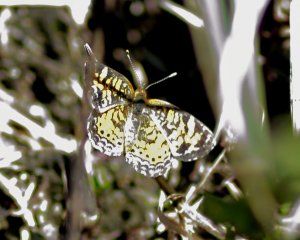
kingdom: Animalia
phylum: Arthropoda
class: Insecta
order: Lepidoptera
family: Nymphalidae
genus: Phyciodes
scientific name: Phyciodes tharos
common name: Pearl Crescent
